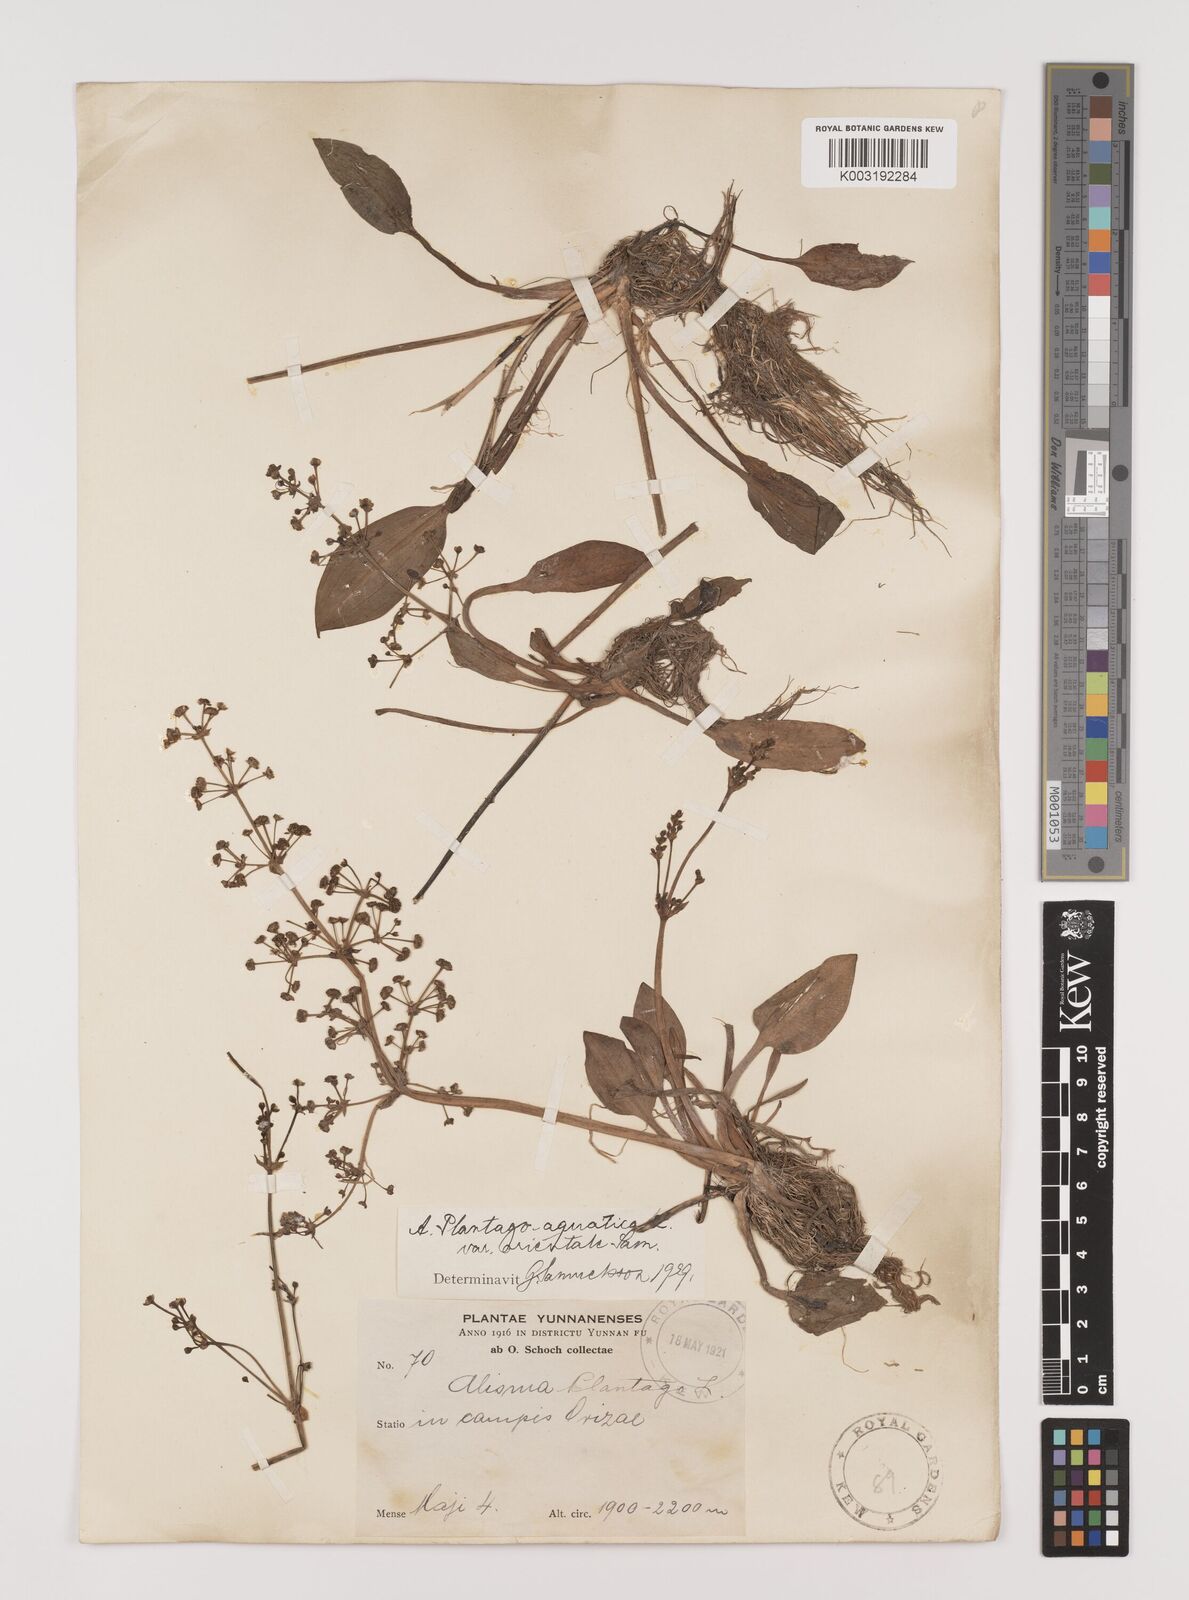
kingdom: Plantae
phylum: Tracheophyta
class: Liliopsida
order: Alismatales
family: Alismataceae
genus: Alisma
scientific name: Alisma plantago-aquatica
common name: Water-plantain
